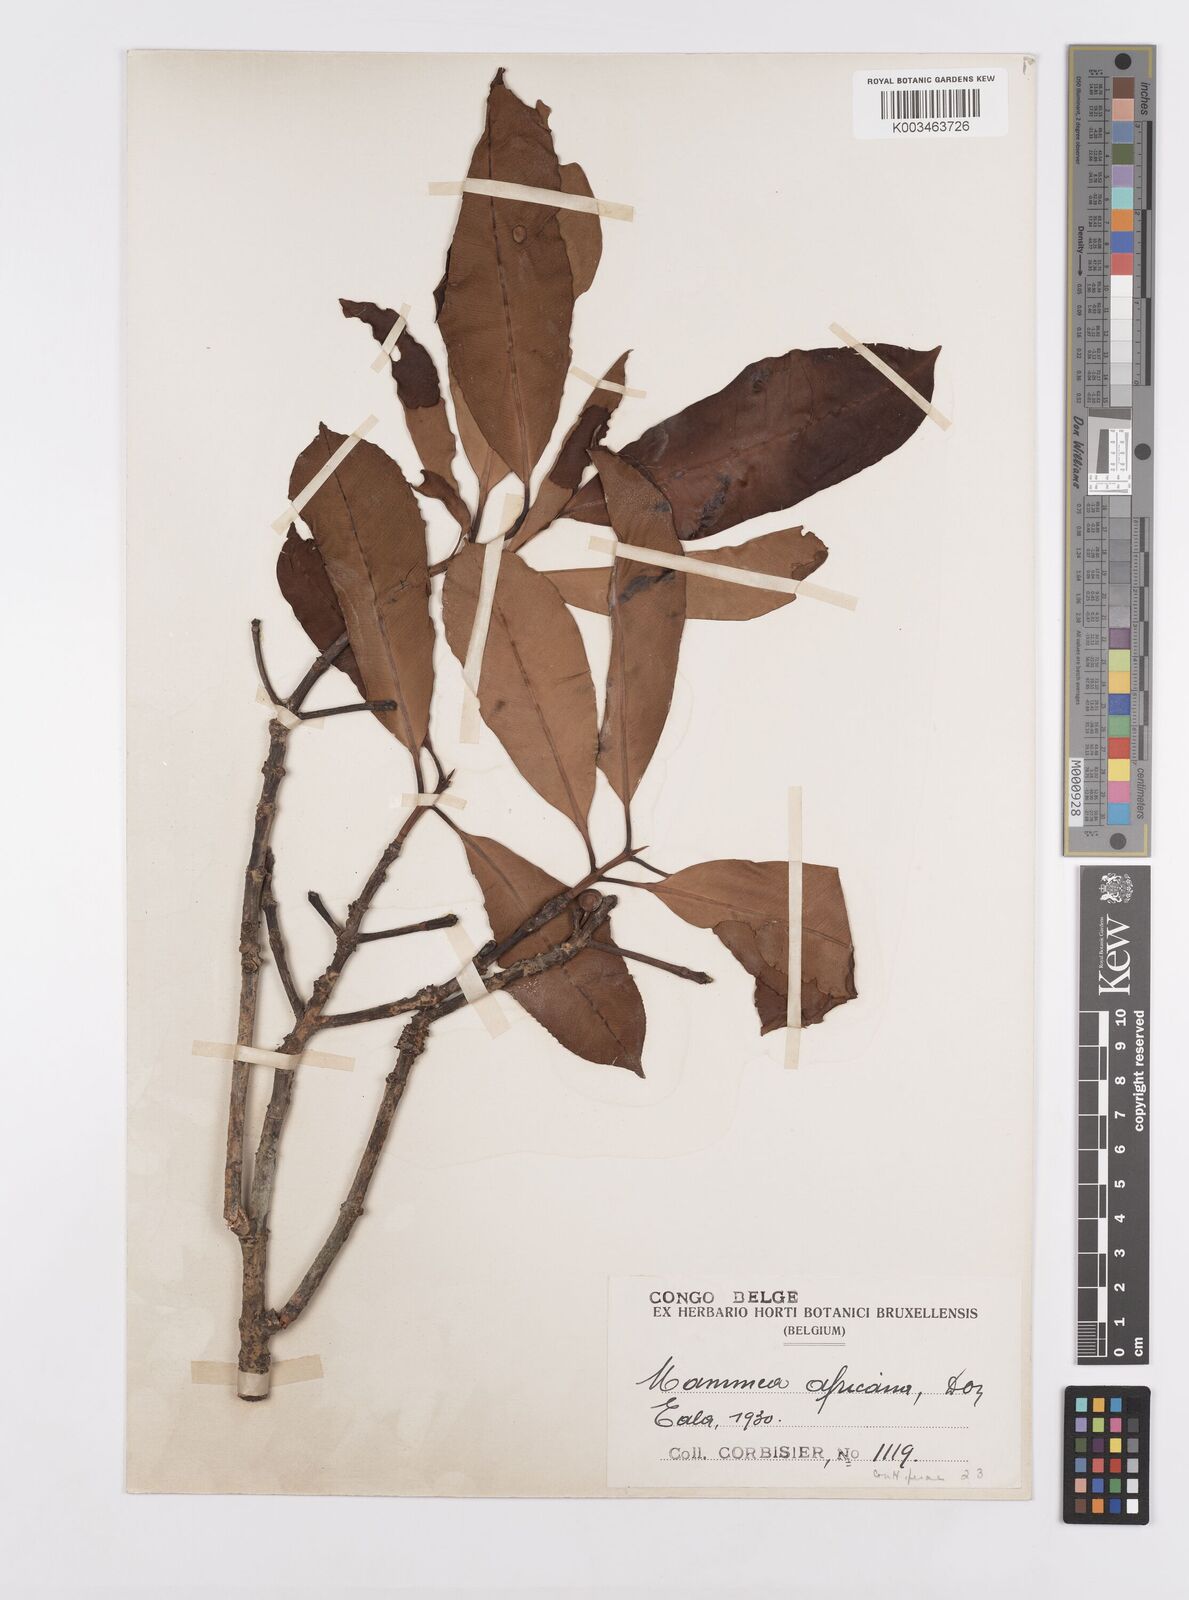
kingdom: Plantae
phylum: Tracheophyta
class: Magnoliopsida
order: Malpighiales
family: Calophyllaceae
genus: Mammea
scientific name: Mammea africana
